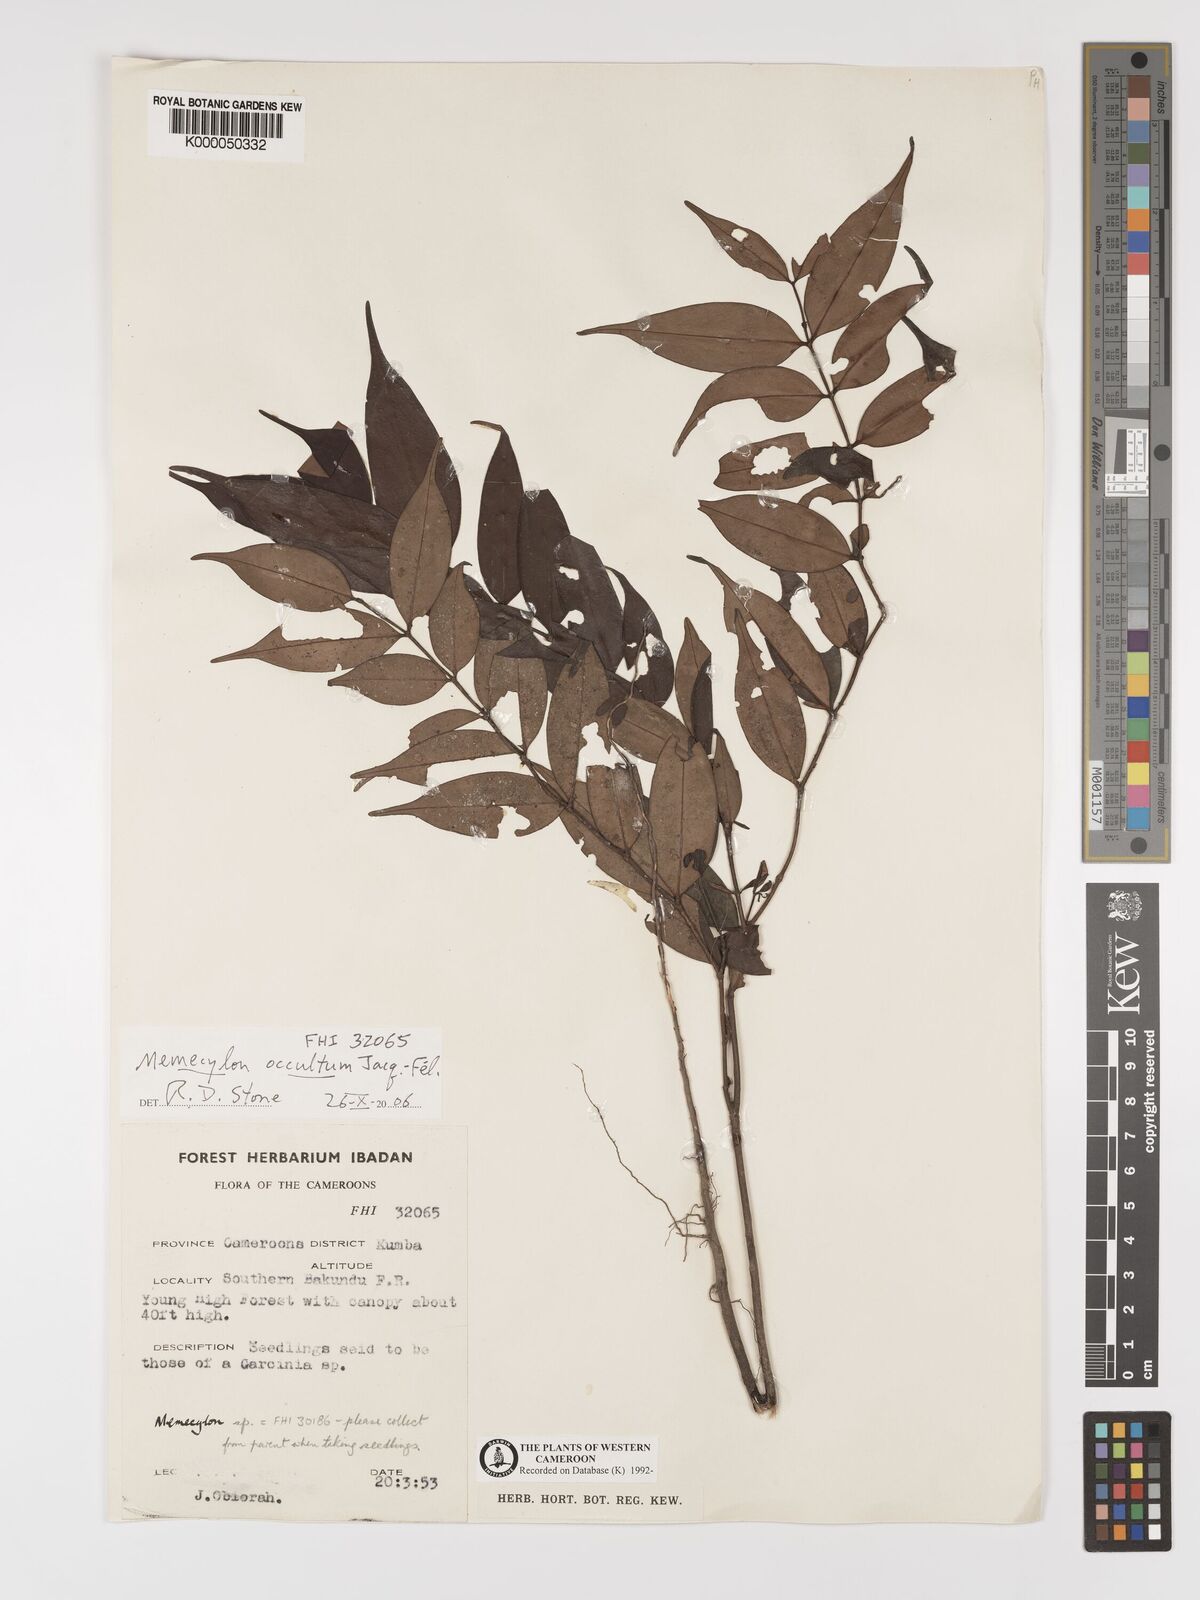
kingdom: Plantae
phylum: Tracheophyta
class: Magnoliopsida
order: Myrtales
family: Melastomataceae
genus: Memecylon
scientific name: Memecylon
